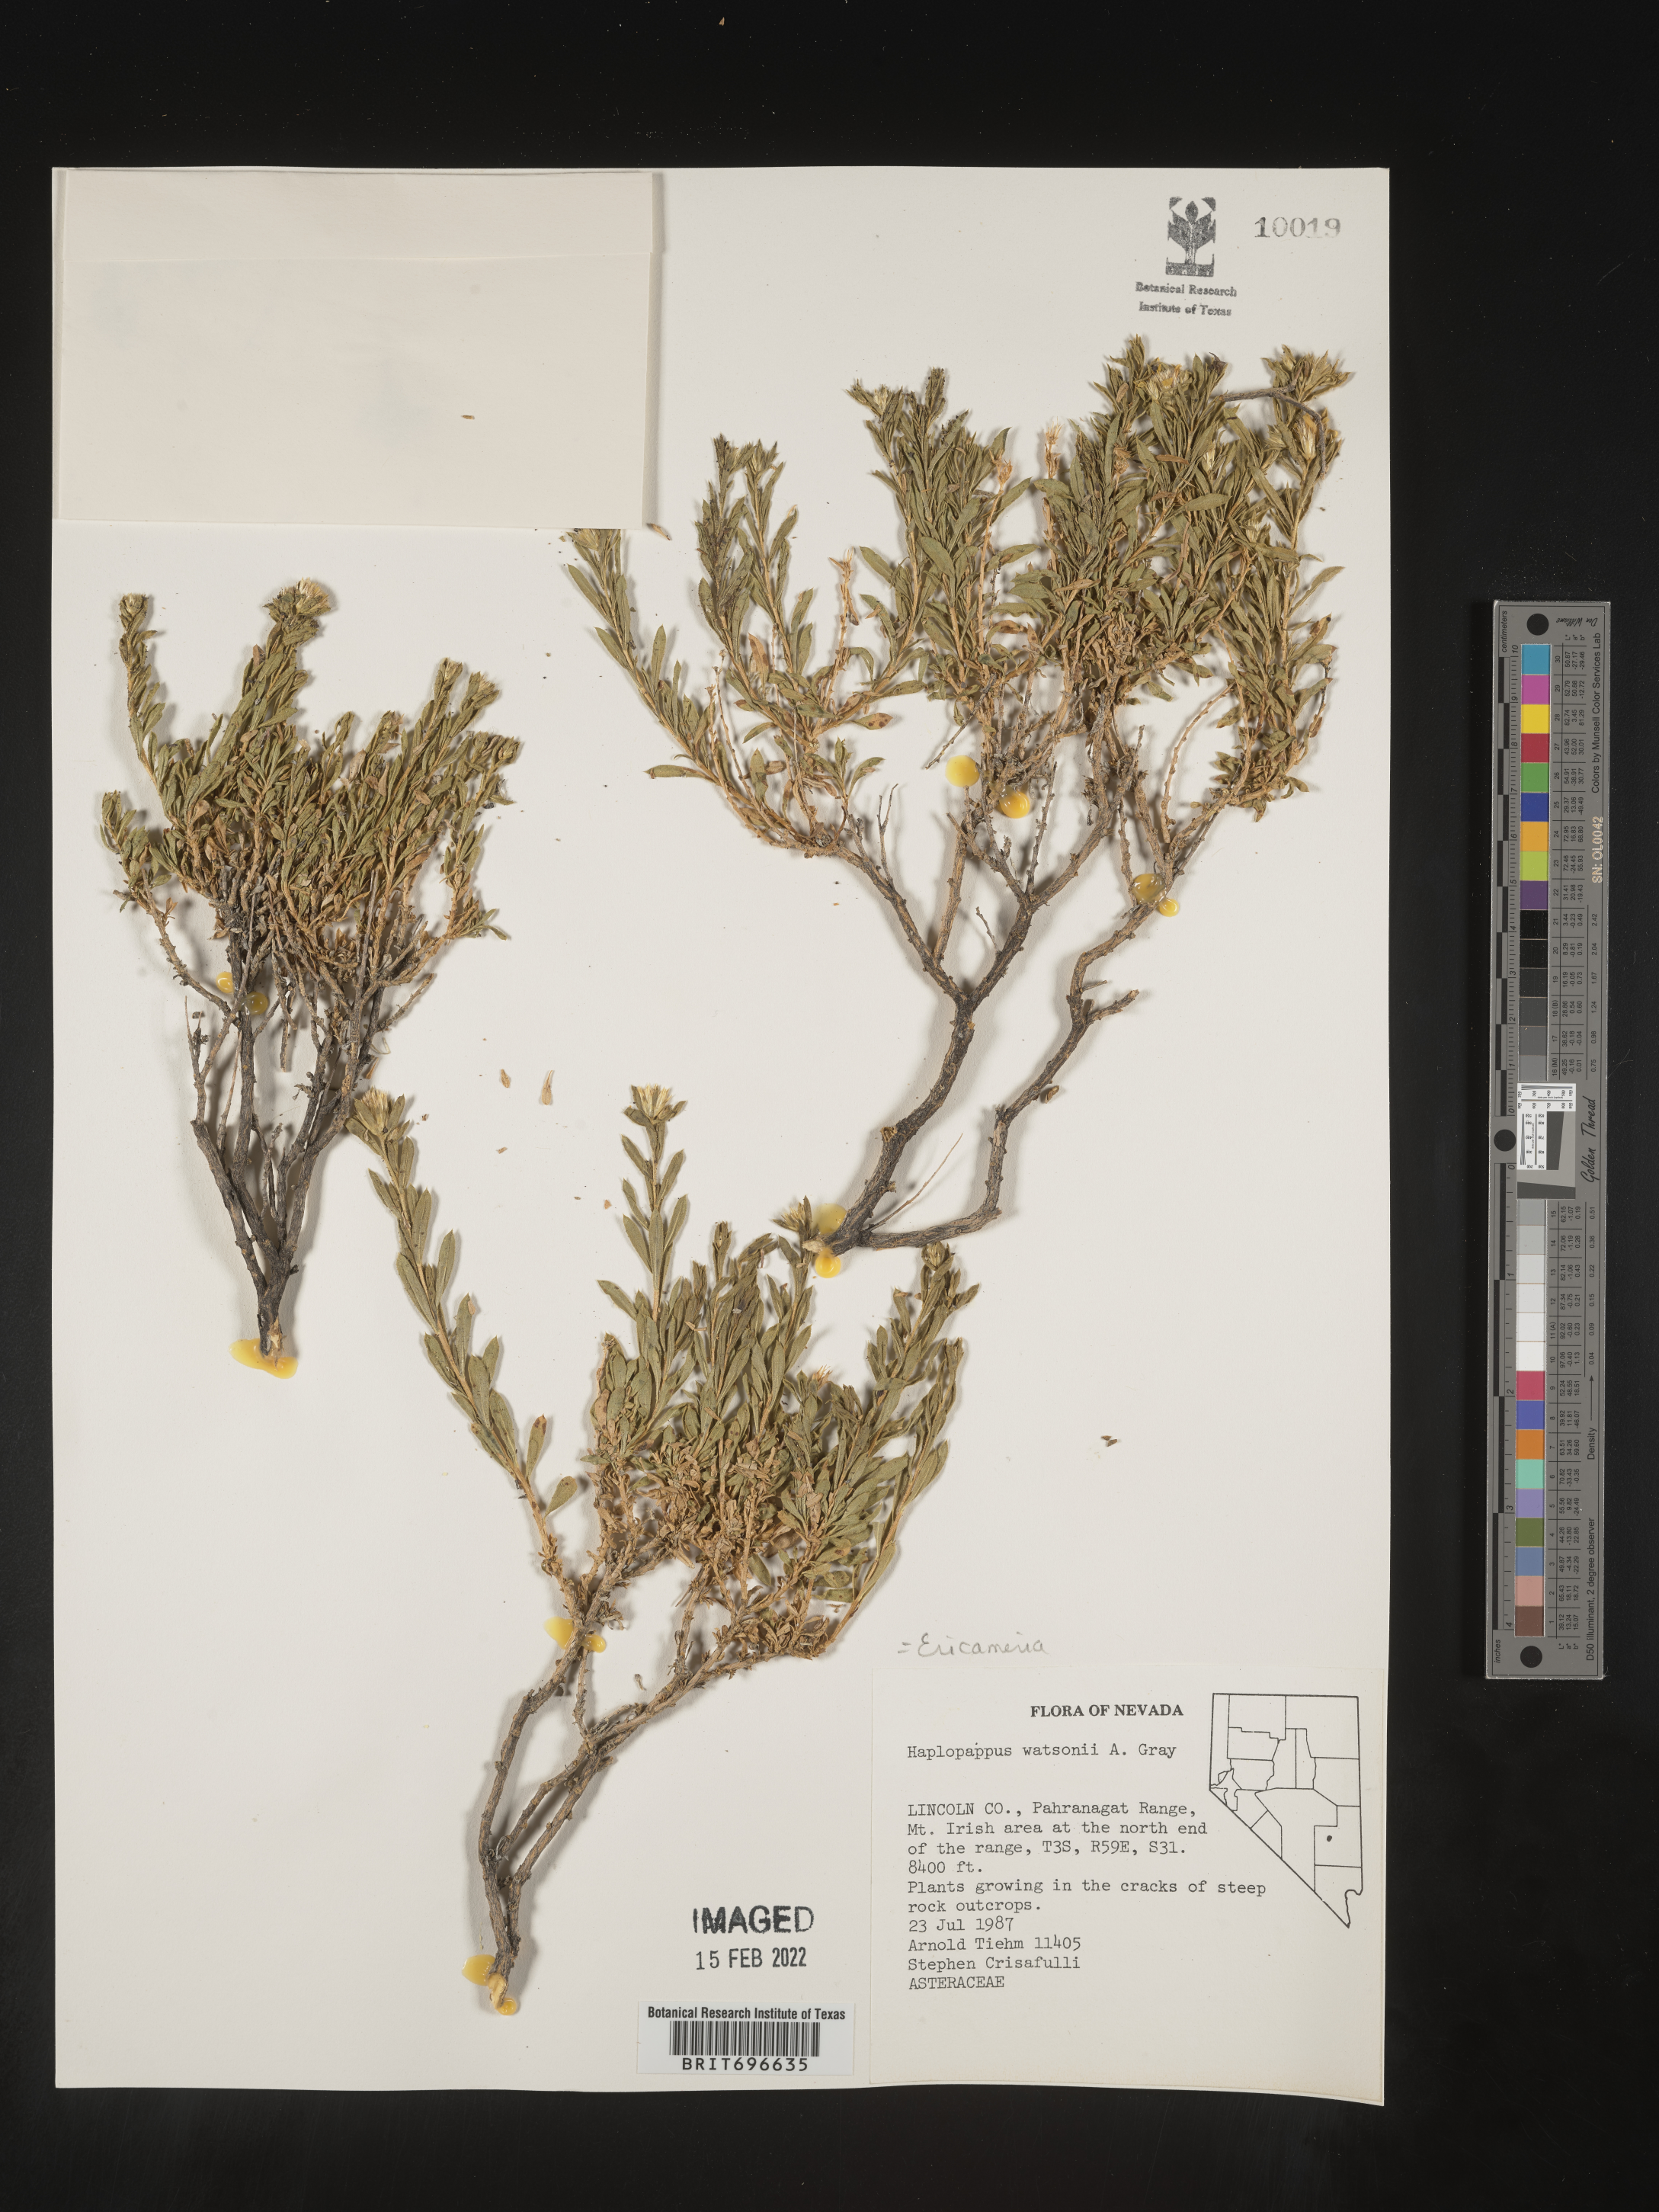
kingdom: Plantae
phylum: Tracheophyta
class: Magnoliopsida
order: Asterales
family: Asteraceae
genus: Ericameria
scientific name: Ericameria watsonii
